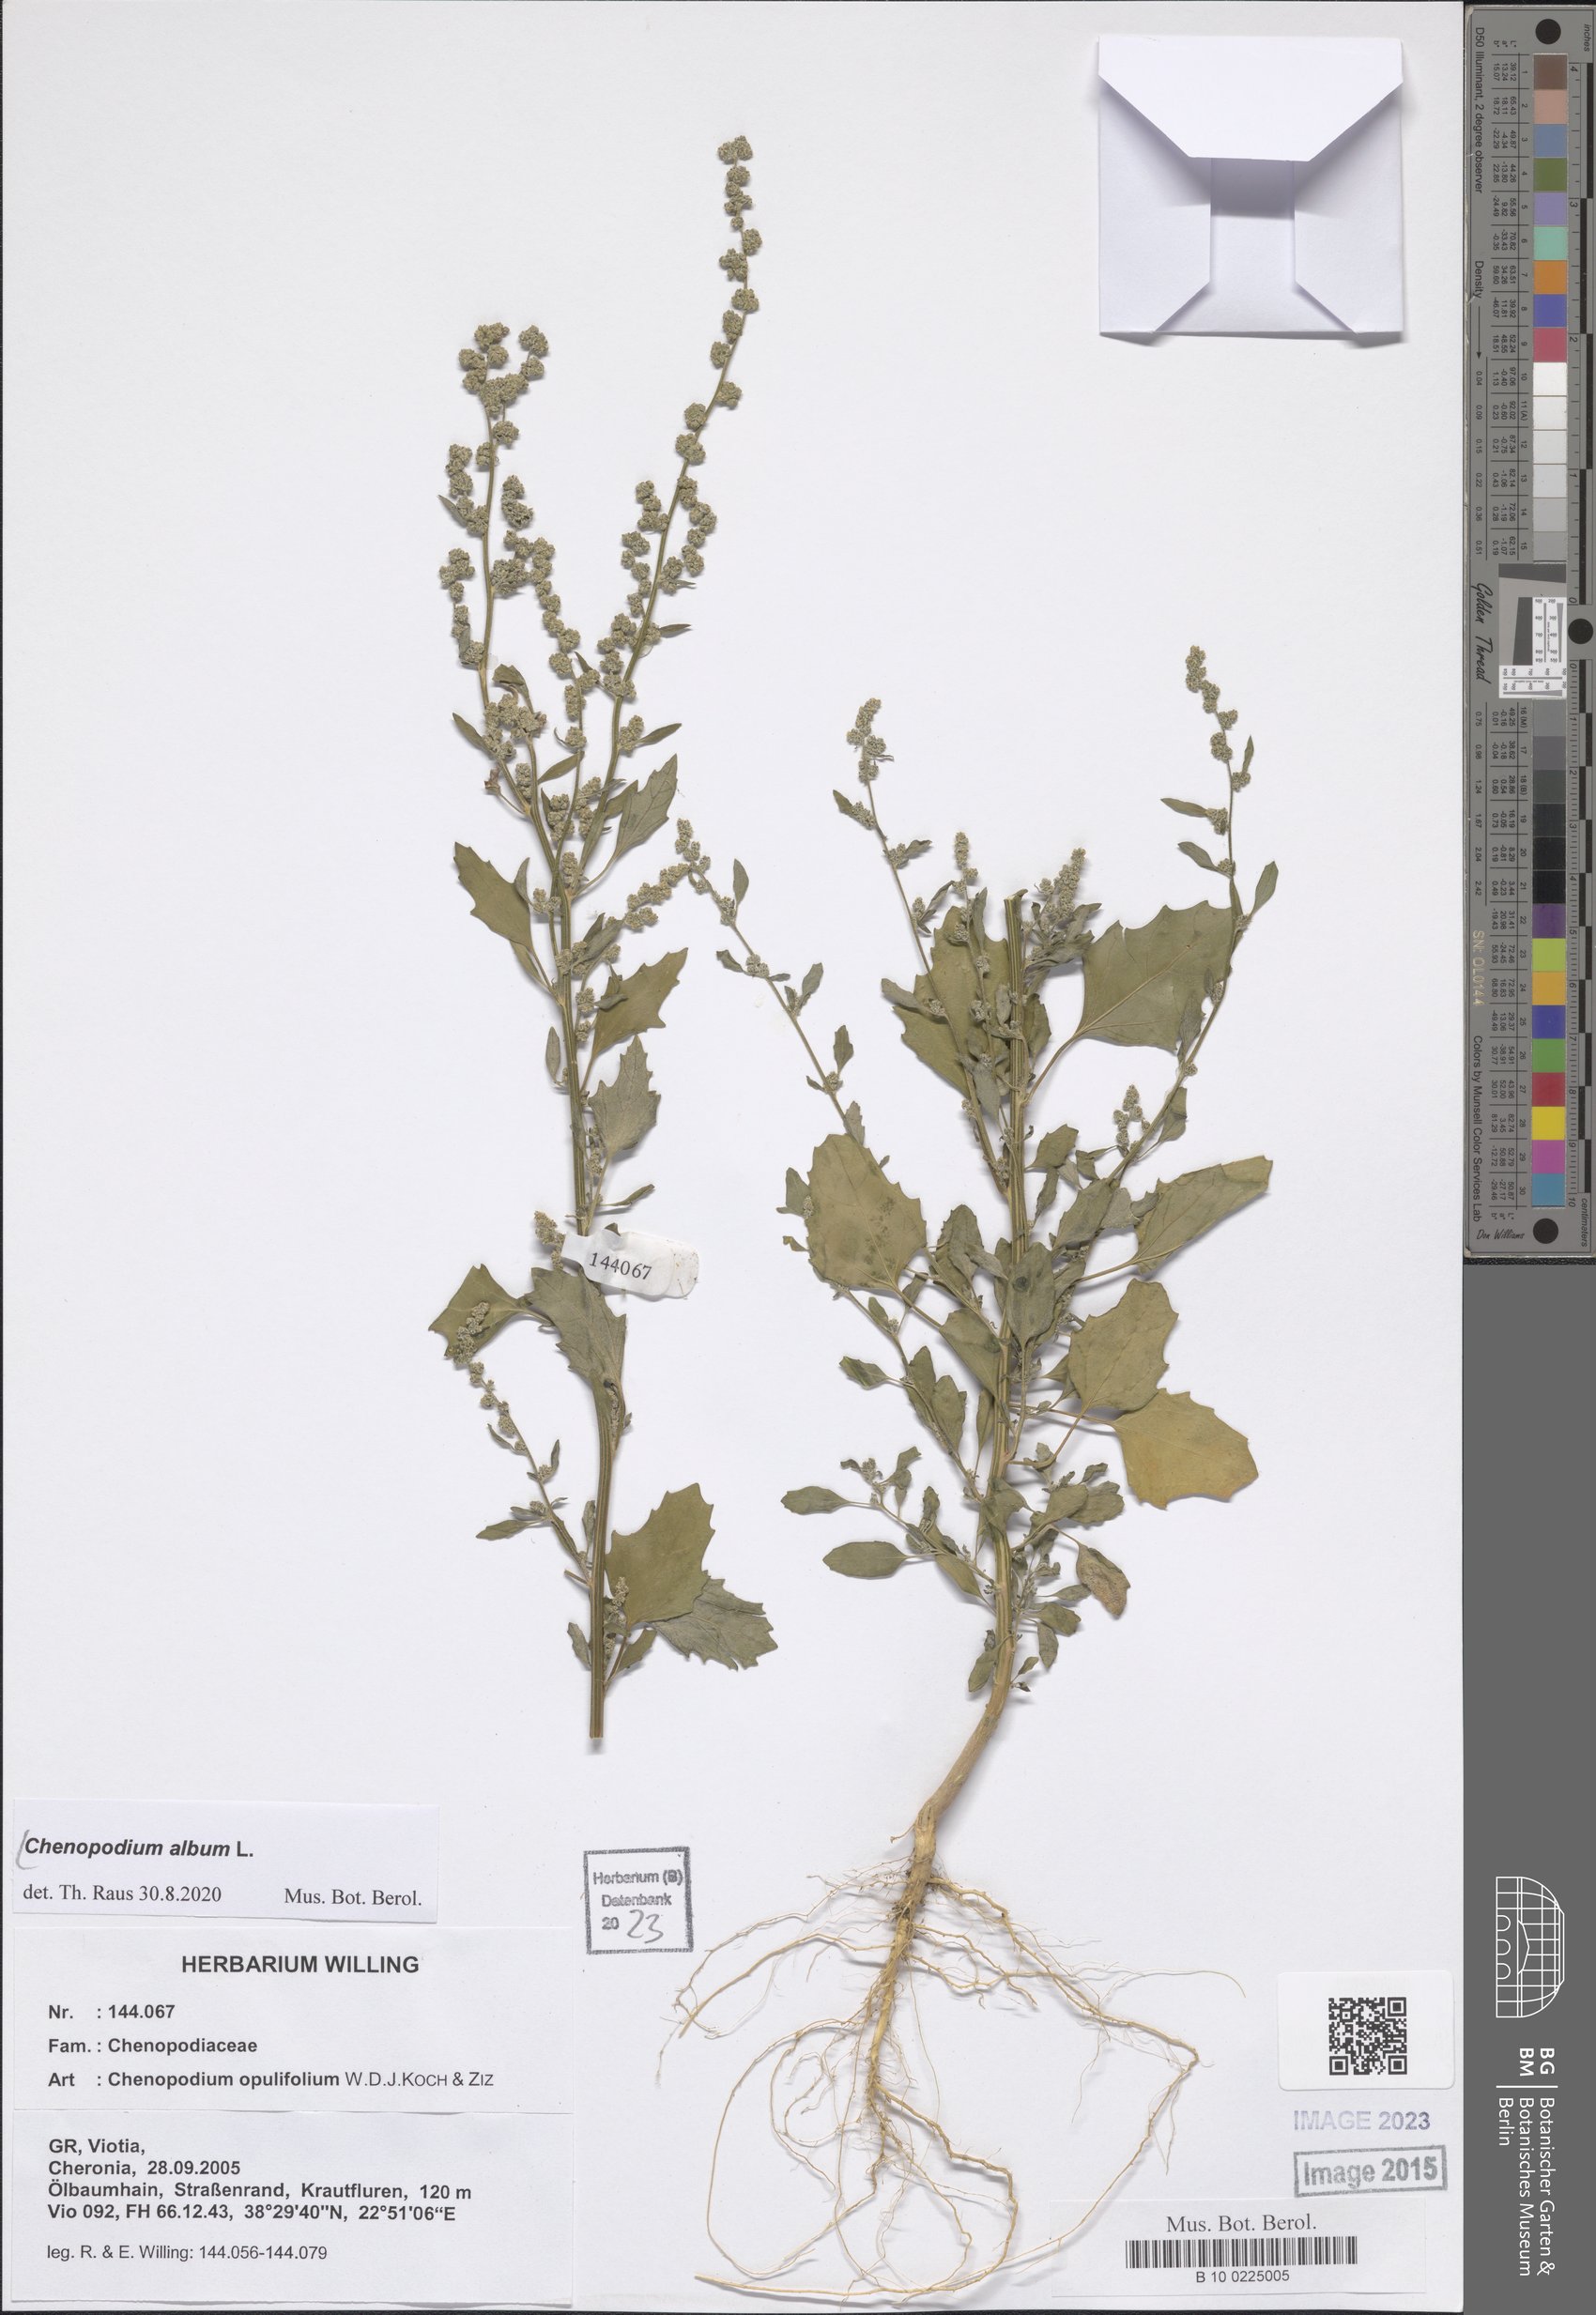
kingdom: Plantae
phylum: Tracheophyta
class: Magnoliopsida
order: Caryophyllales
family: Amaranthaceae
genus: Chenopodium
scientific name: Chenopodium album
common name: Fat-hen
